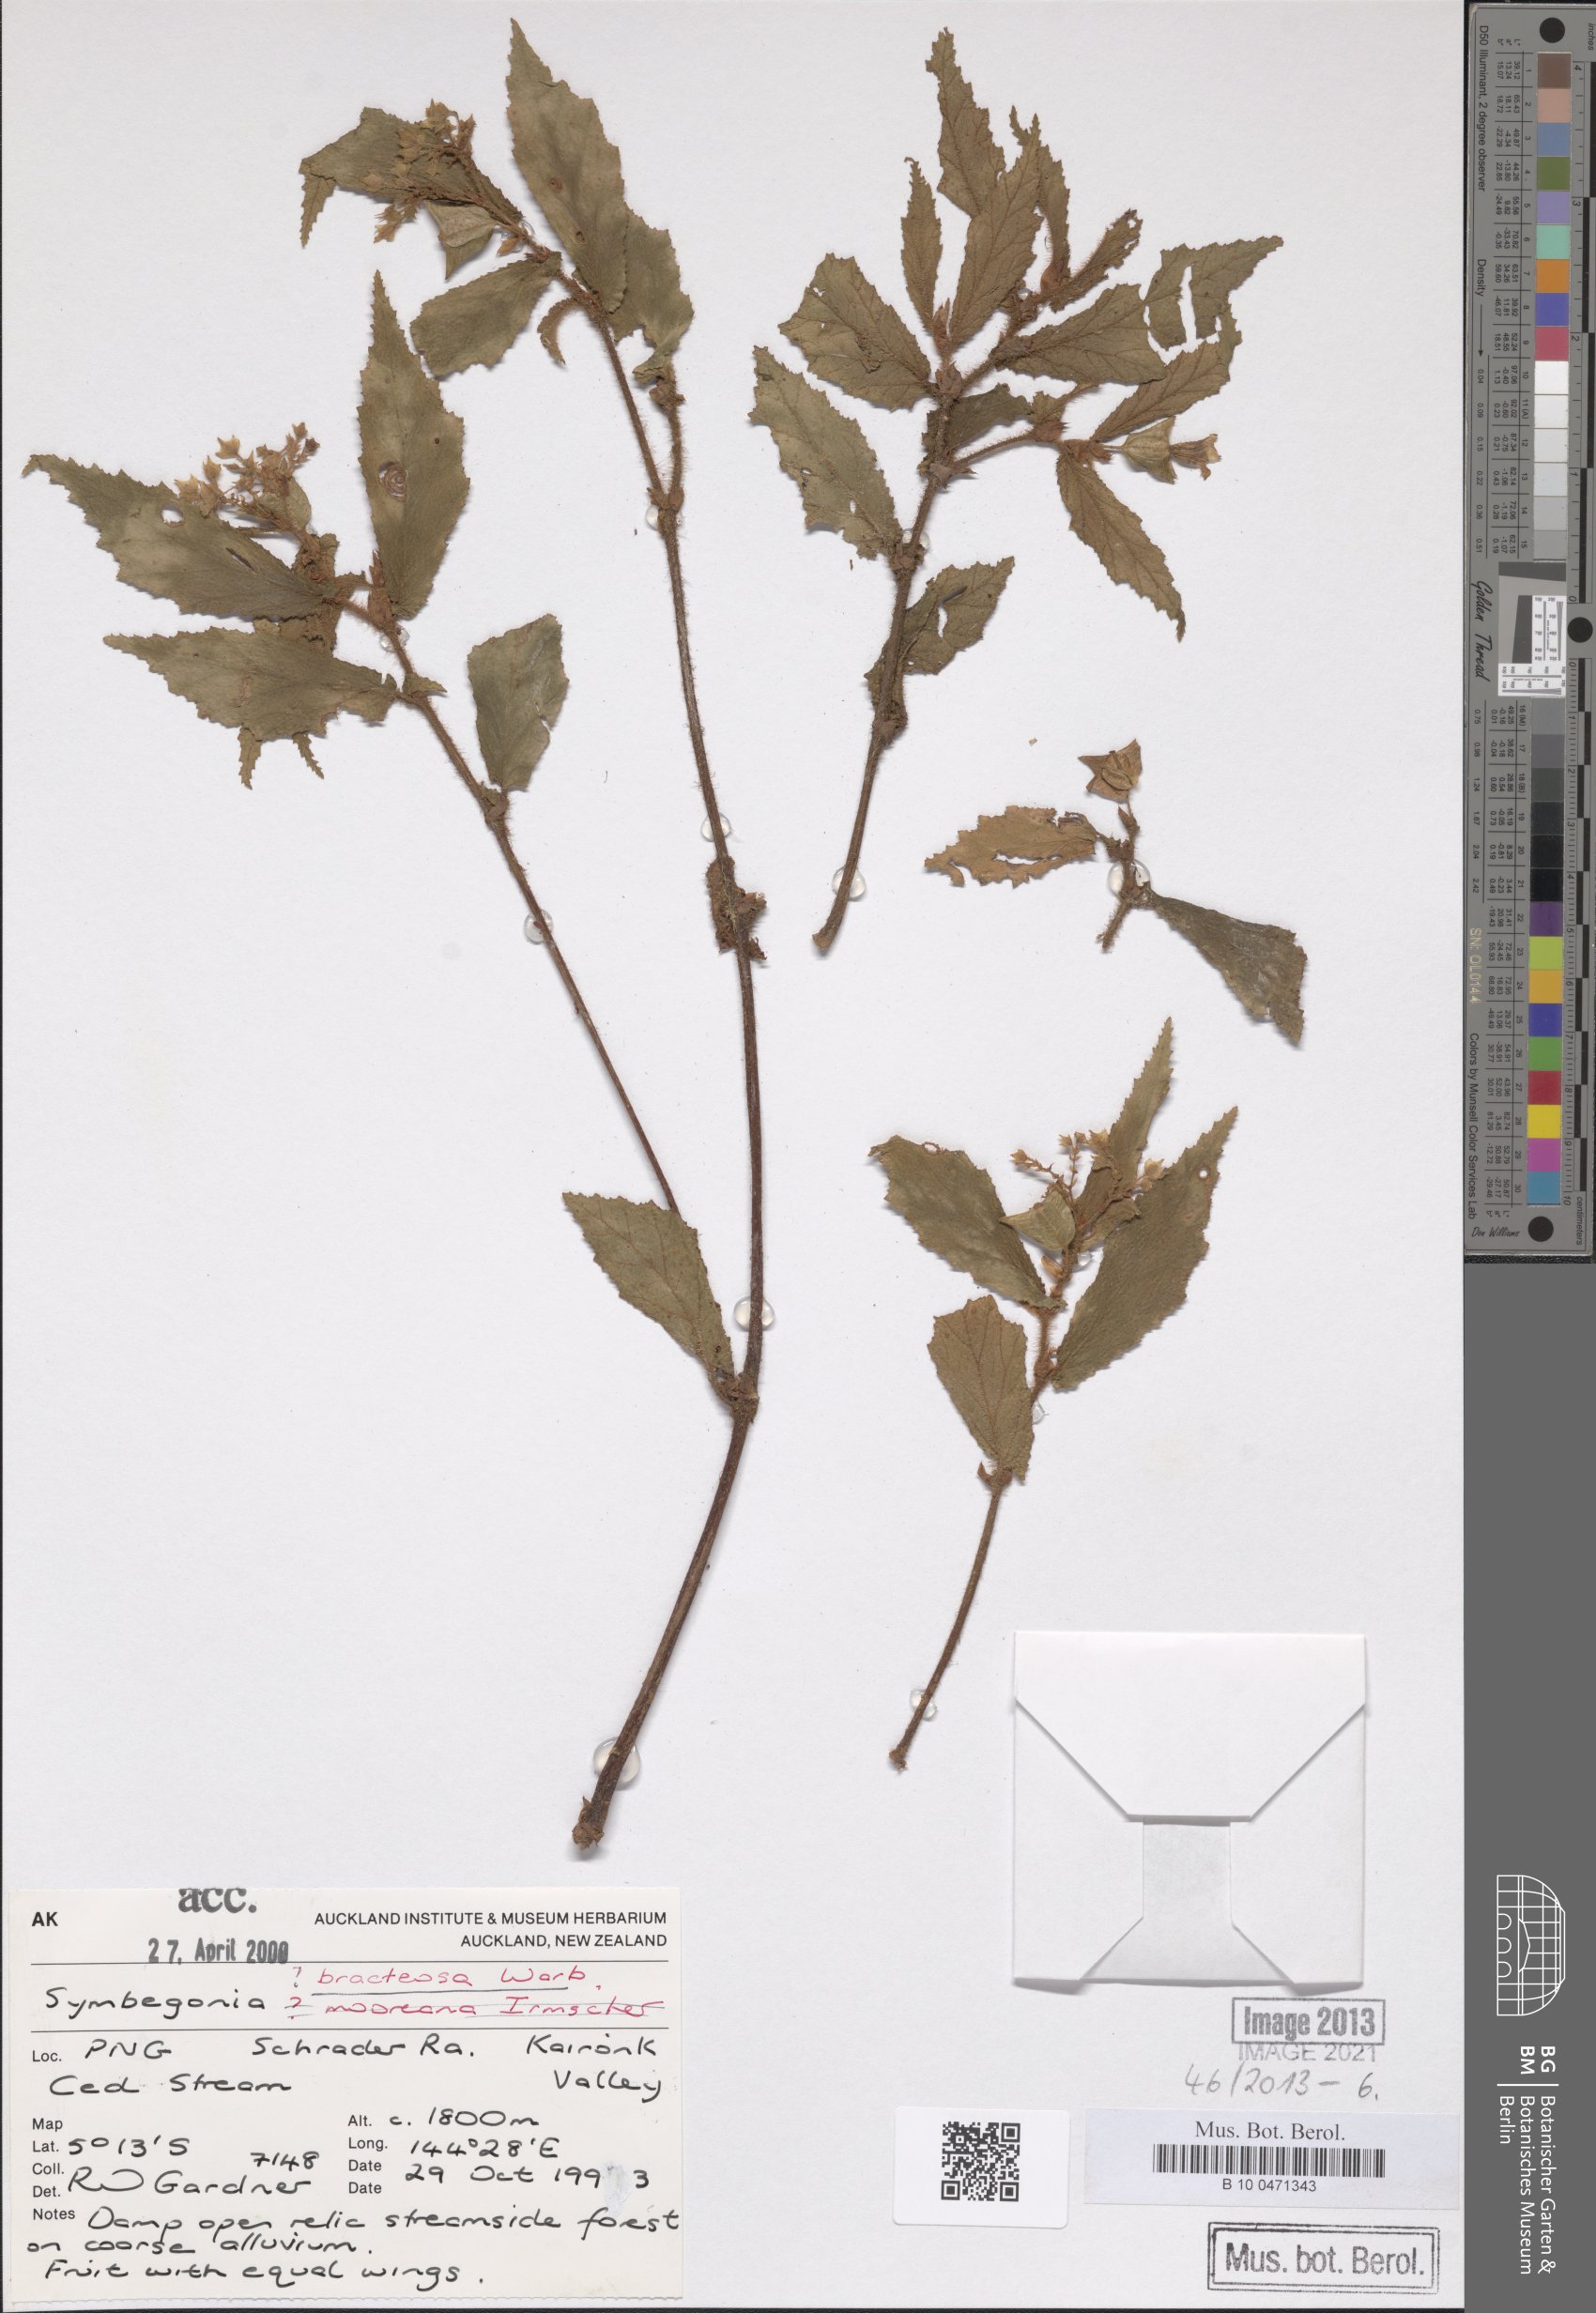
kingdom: Plantae
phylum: Tracheophyta
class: Magnoliopsida
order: Cucurbitales
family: Begoniaceae
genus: Begonia
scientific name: Begonia bracteosa
